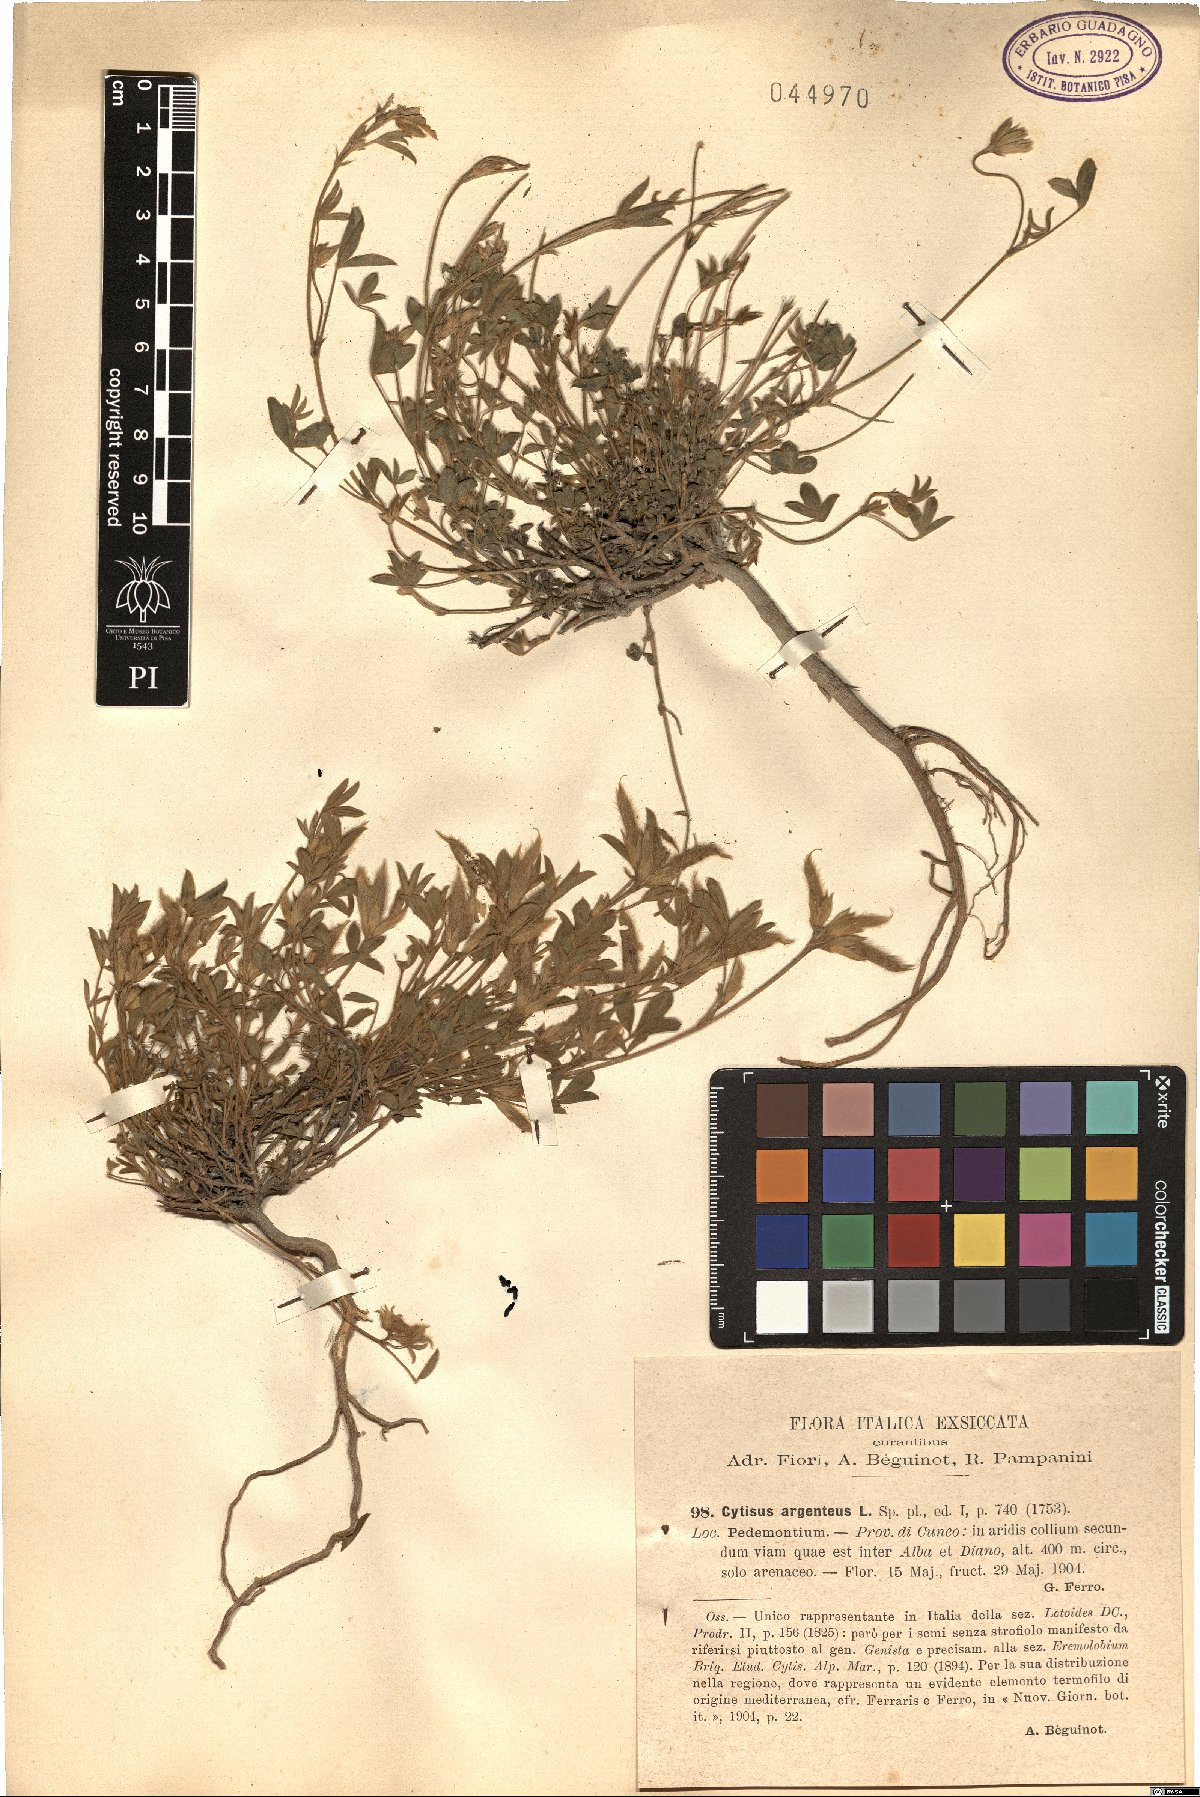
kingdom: Plantae
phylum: Tracheophyta
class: Magnoliopsida
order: Fabales
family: Fabaceae
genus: Cytisophyllum
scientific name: Cytisophyllum Cytisus argenteus
